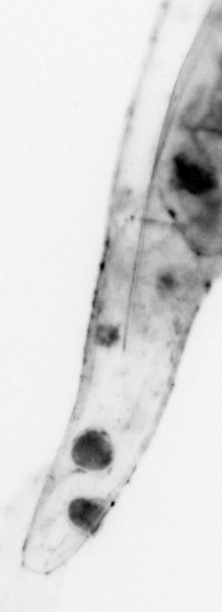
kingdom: Animalia
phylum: Chaetognatha
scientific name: Chaetognatha
